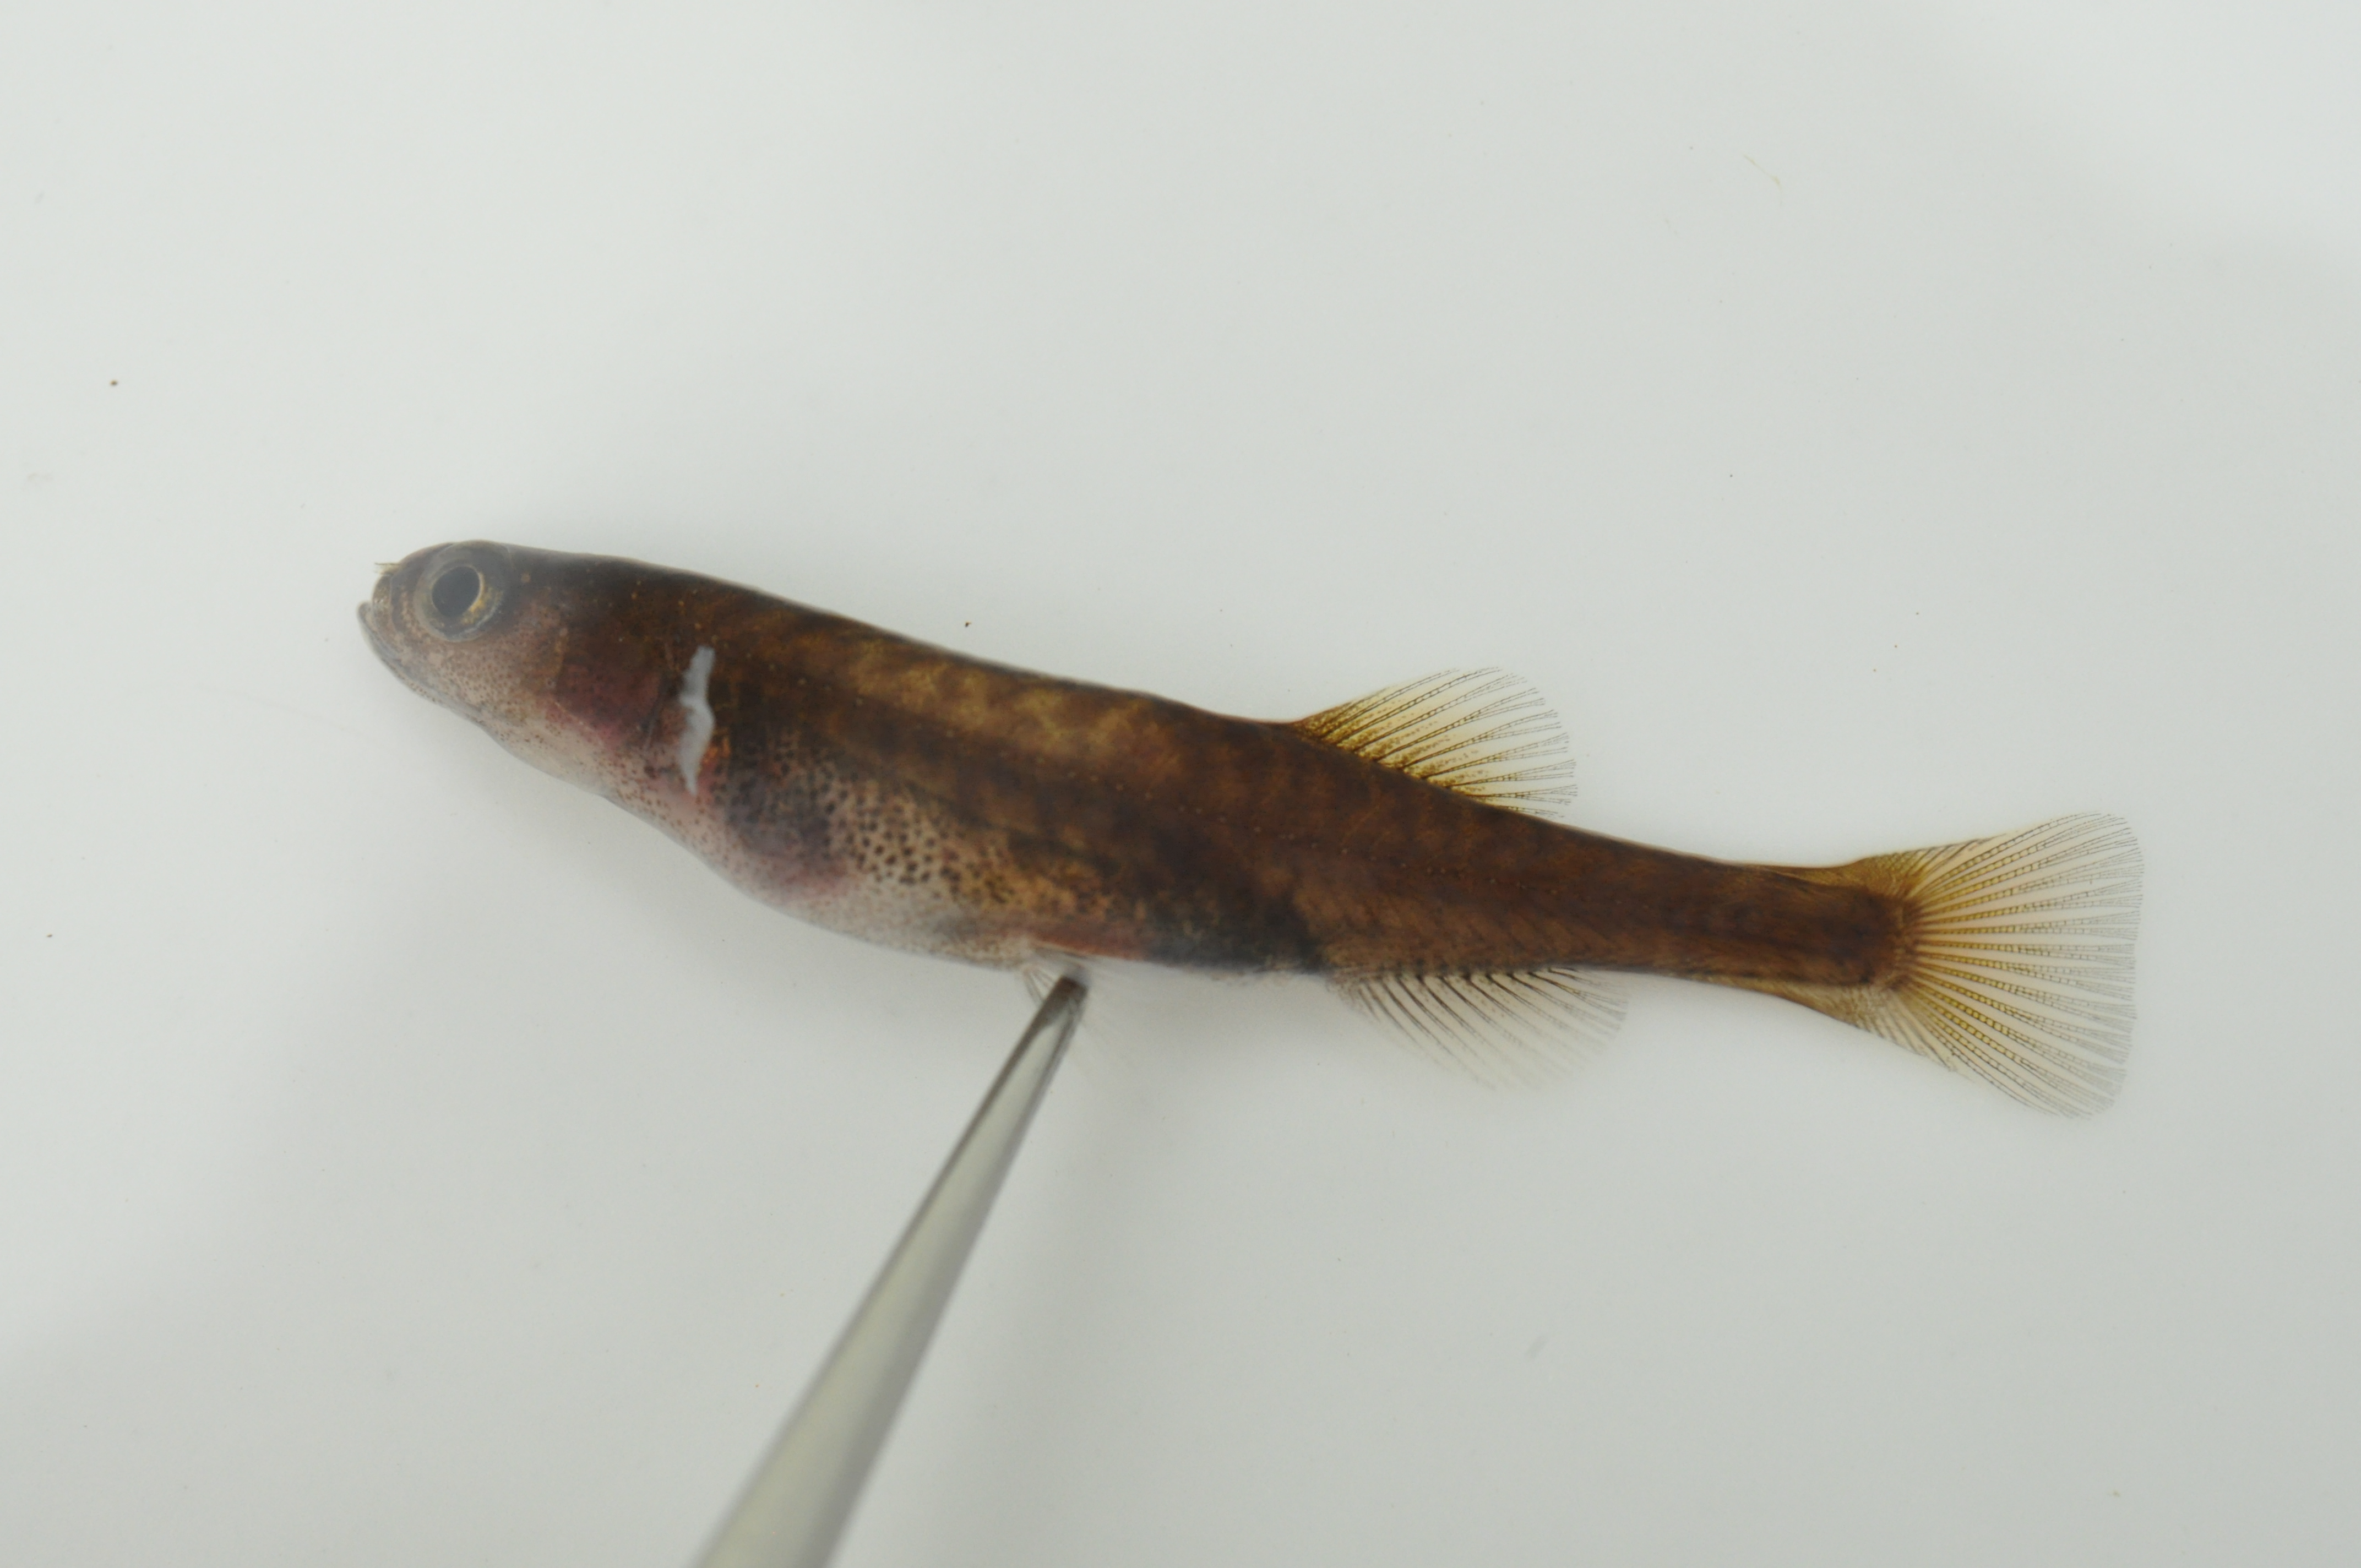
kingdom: Animalia
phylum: Chordata
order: Osmeriformes
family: Galaxiidae
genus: Galaxias
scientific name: Galaxias
